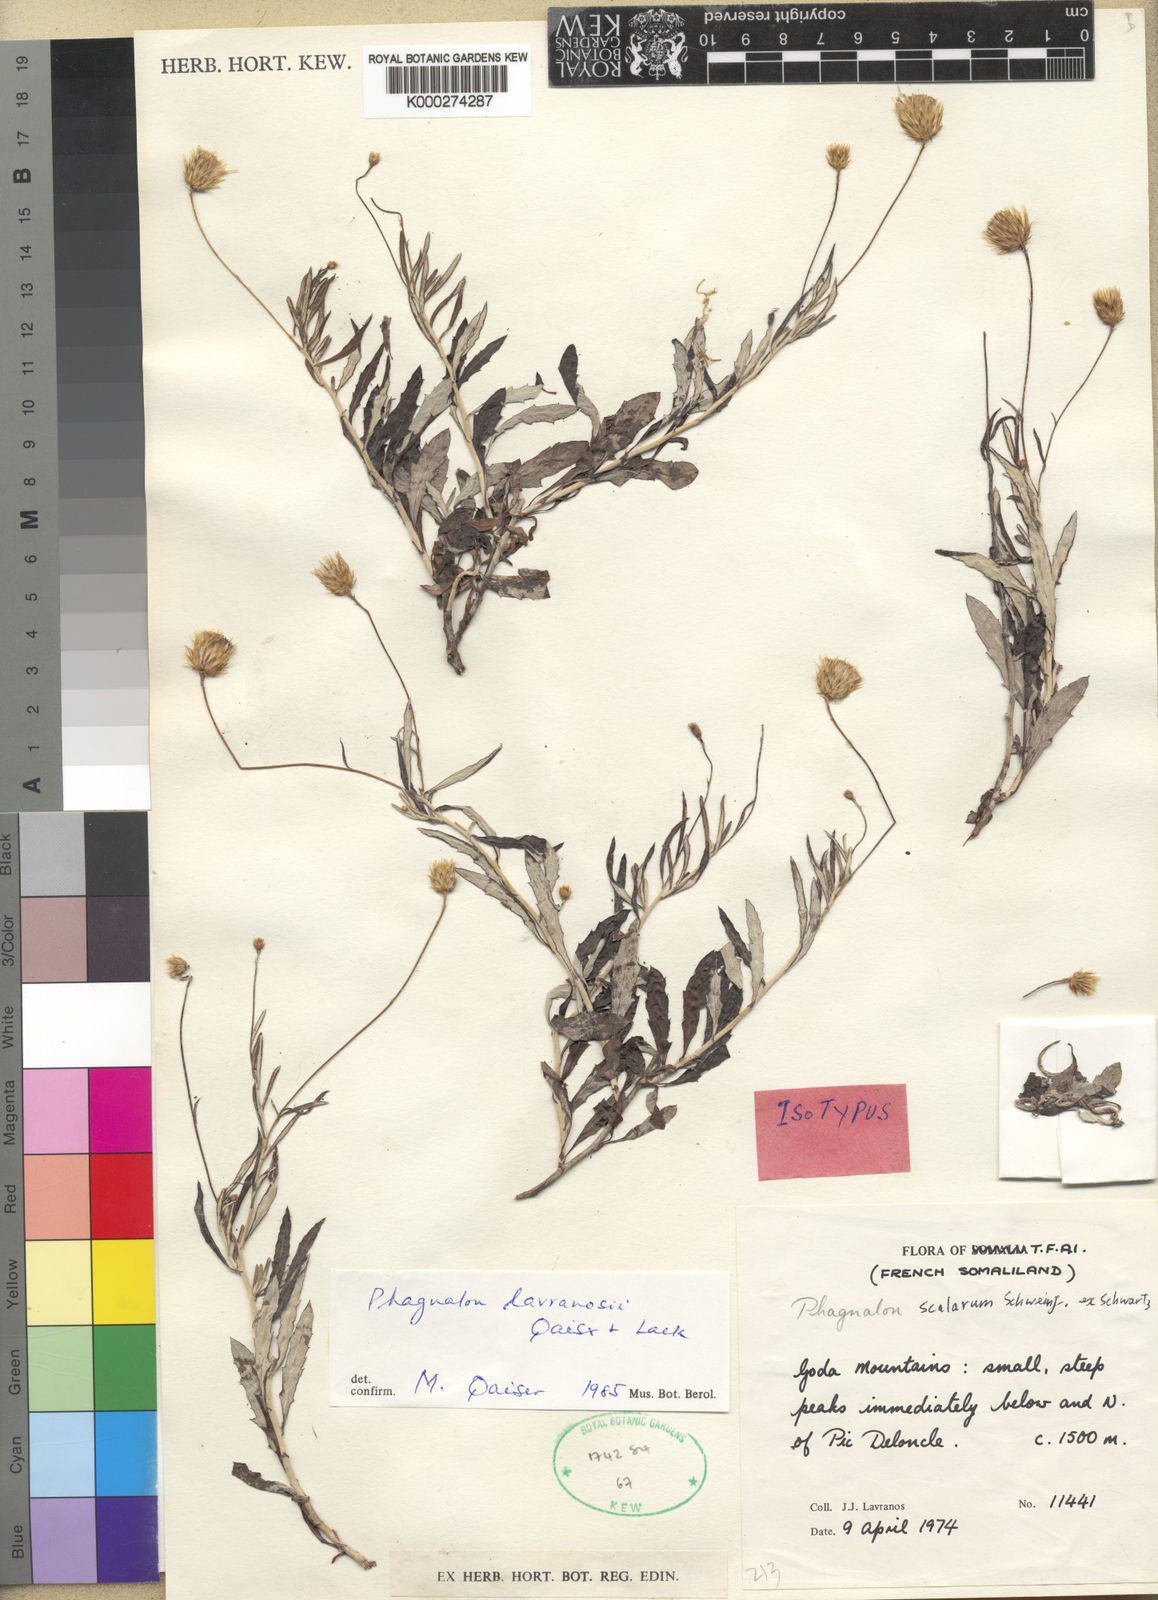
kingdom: Plantae
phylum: Tracheophyta
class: Magnoliopsida
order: Asterales
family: Asteraceae
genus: Phagnalon
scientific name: Phagnalon stenolepis
